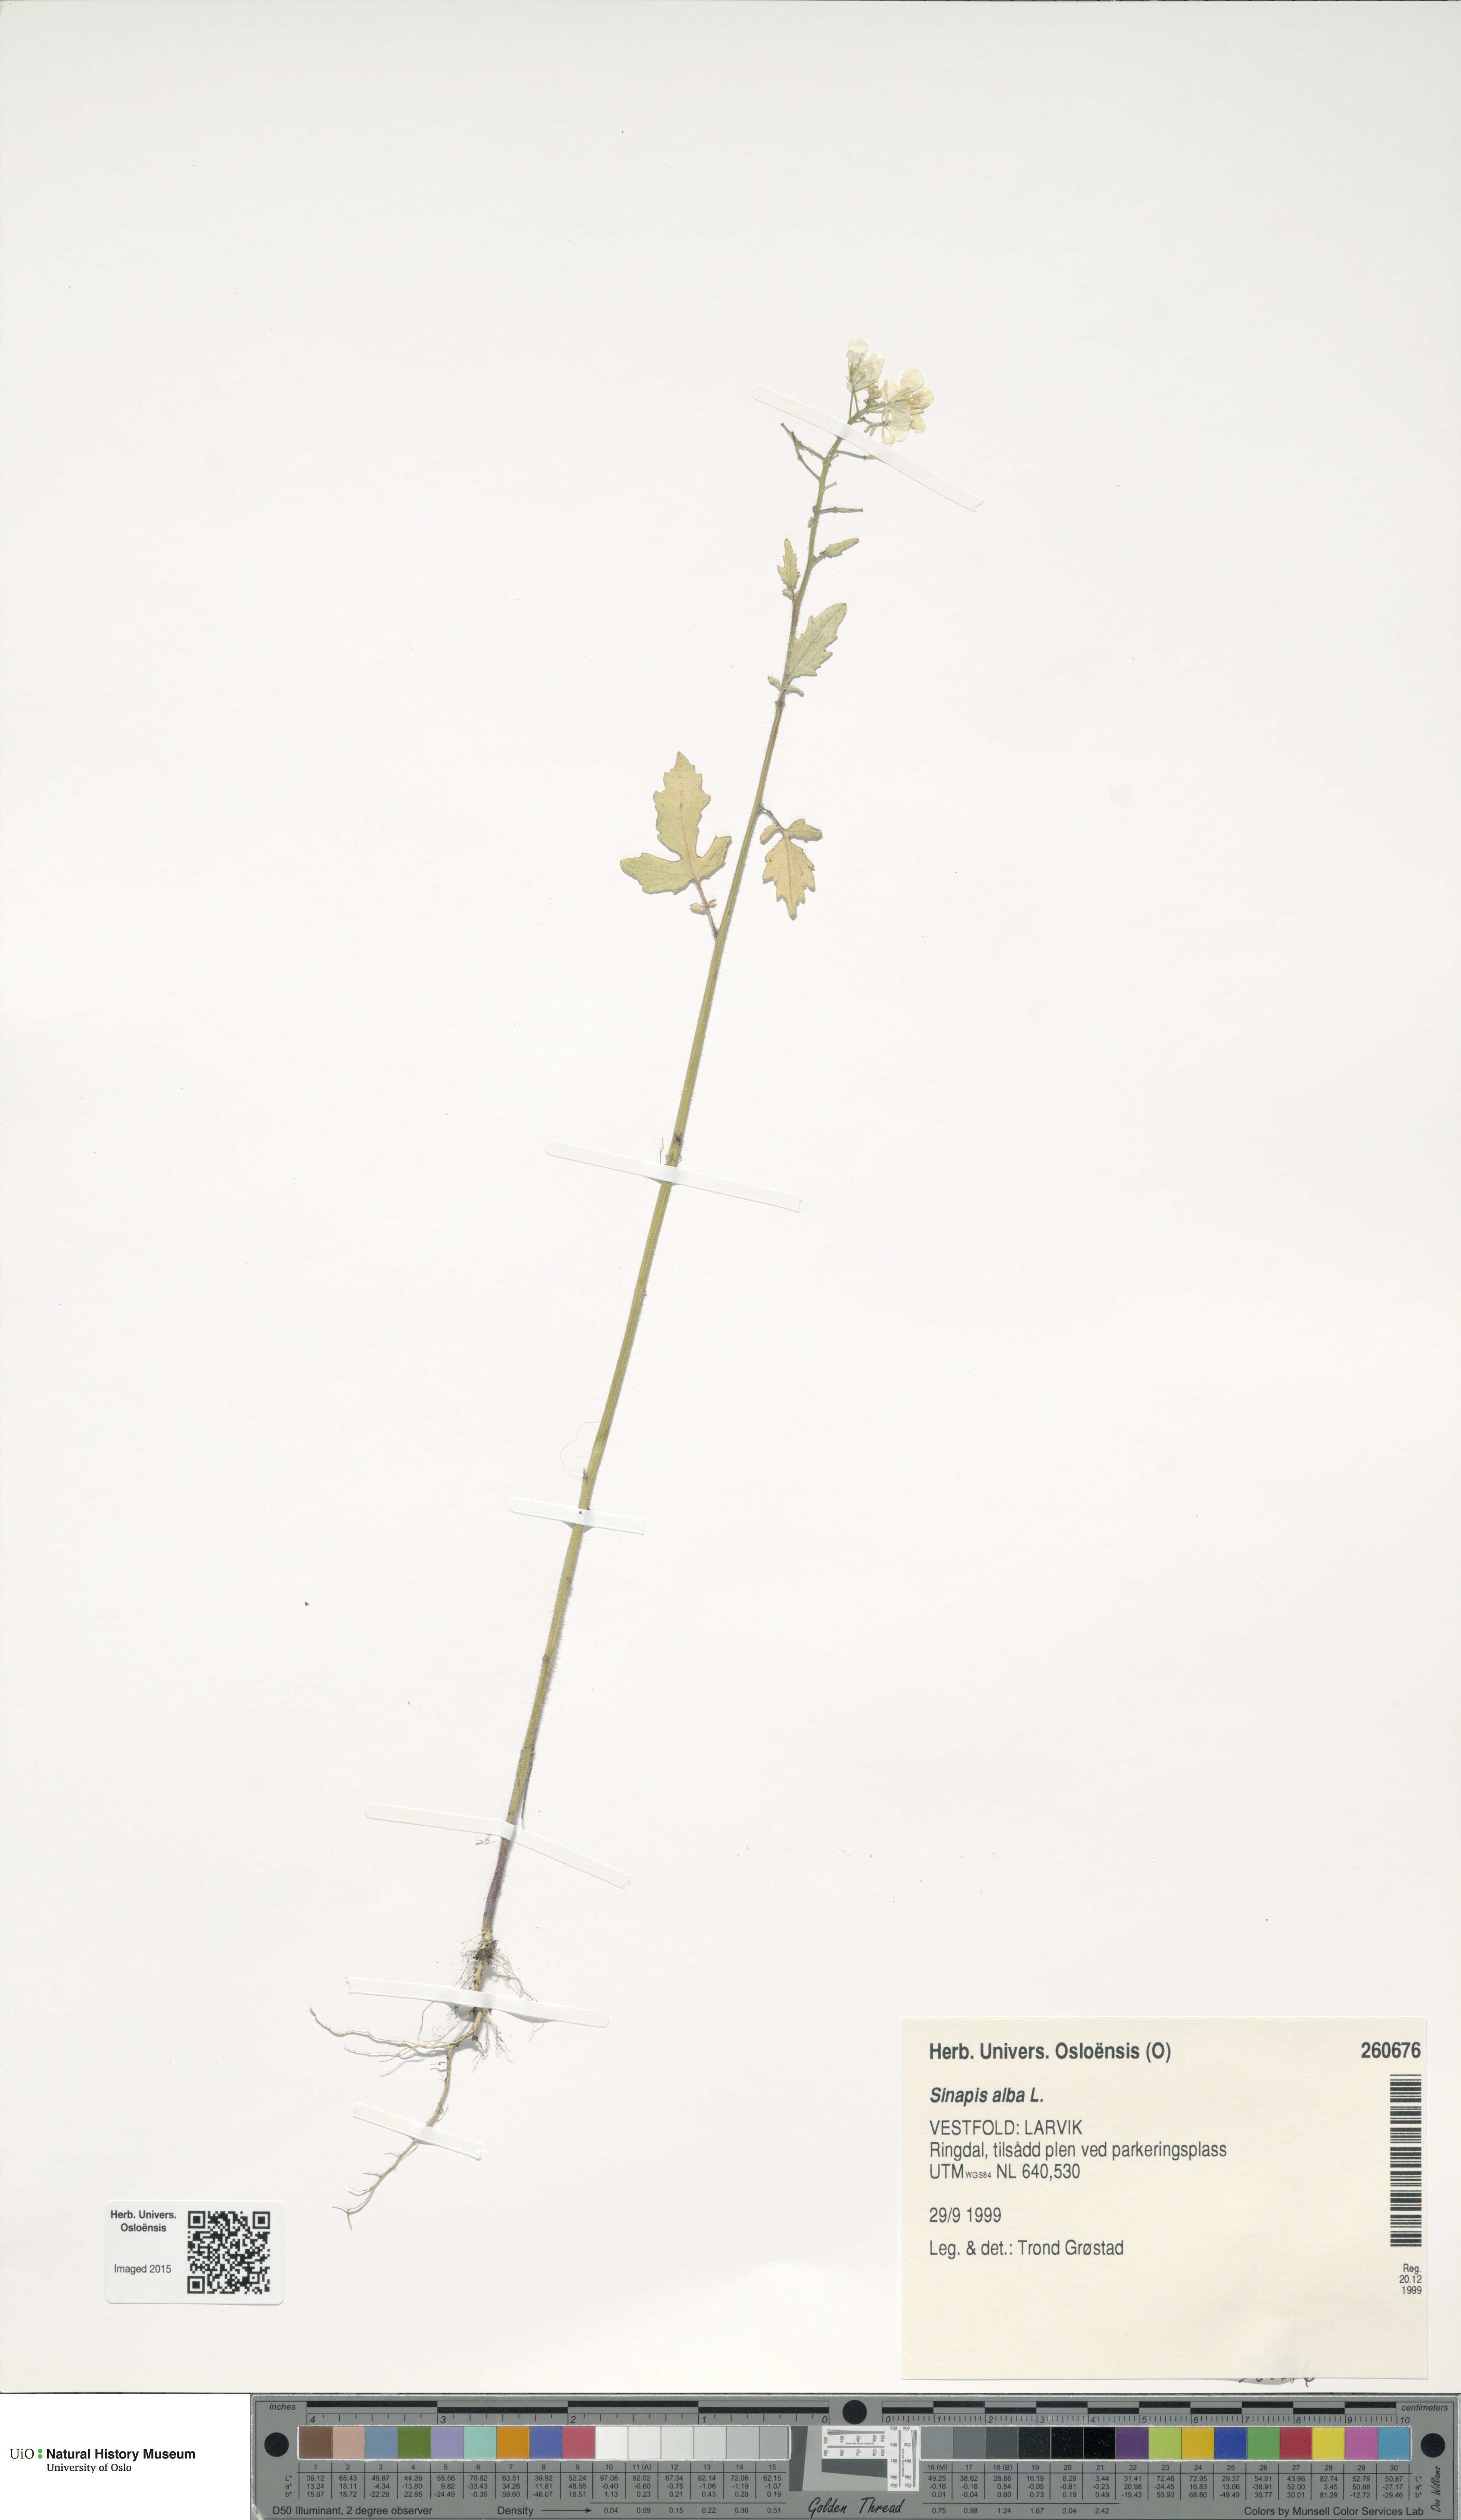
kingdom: Plantae
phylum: Tracheophyta
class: Magnoliopsida
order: Brassicales
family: Brassicaceae
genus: Sinapis
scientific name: Sinapis alba
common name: White mustard
